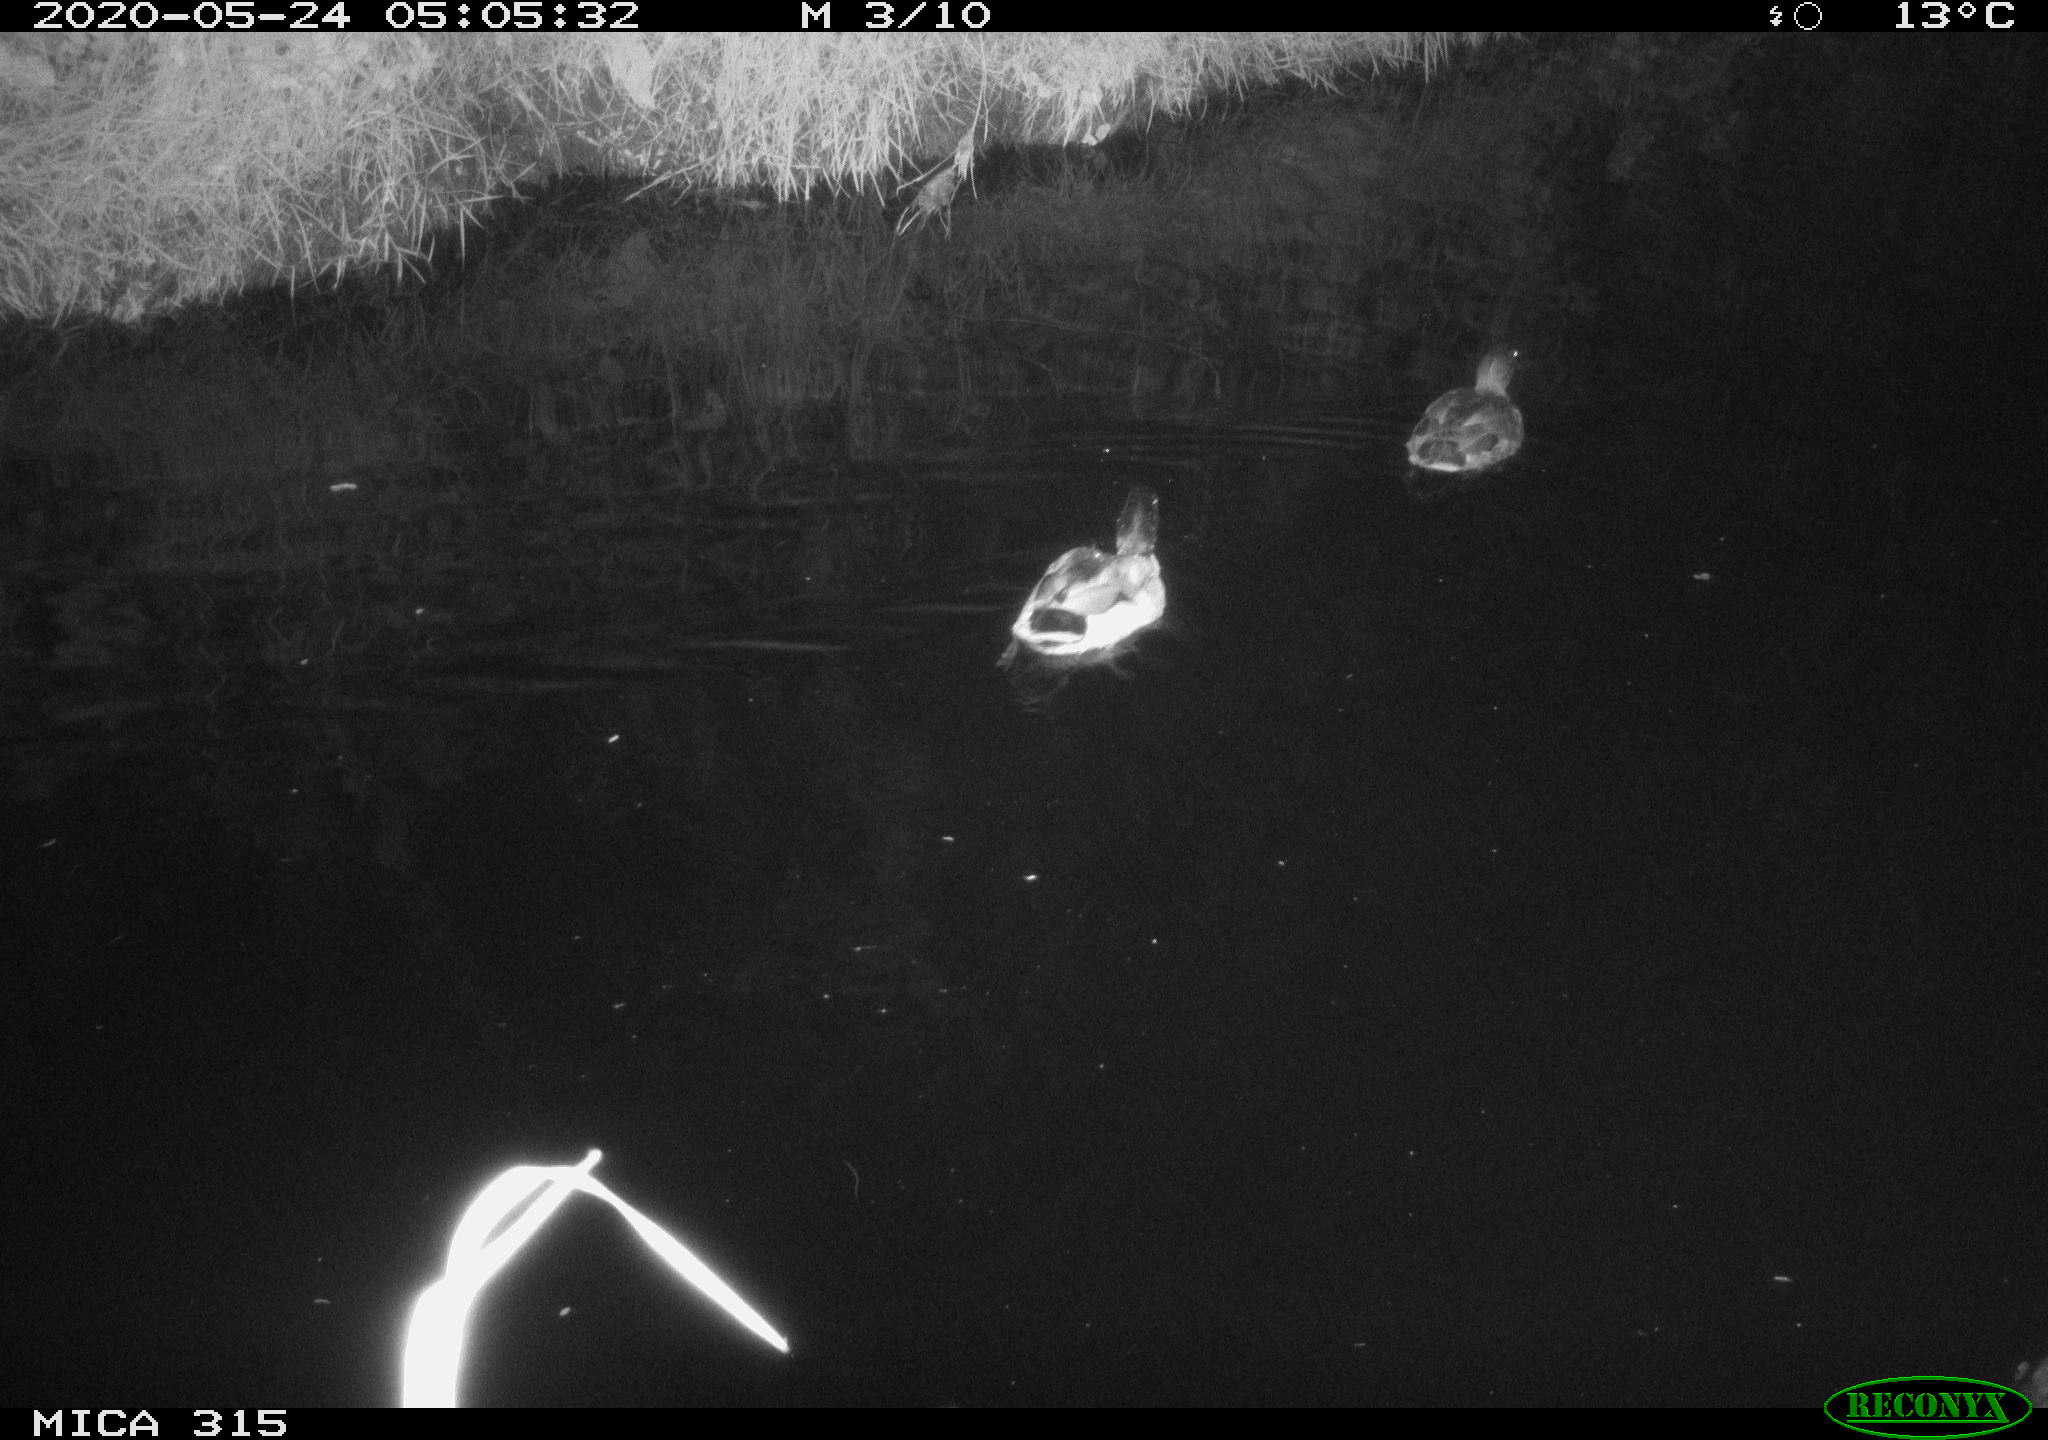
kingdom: Animalia
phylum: Chordata
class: Aves
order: Anseriformes
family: Anatidae
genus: Anas
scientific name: Anas platyrhynchos
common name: Mallard
